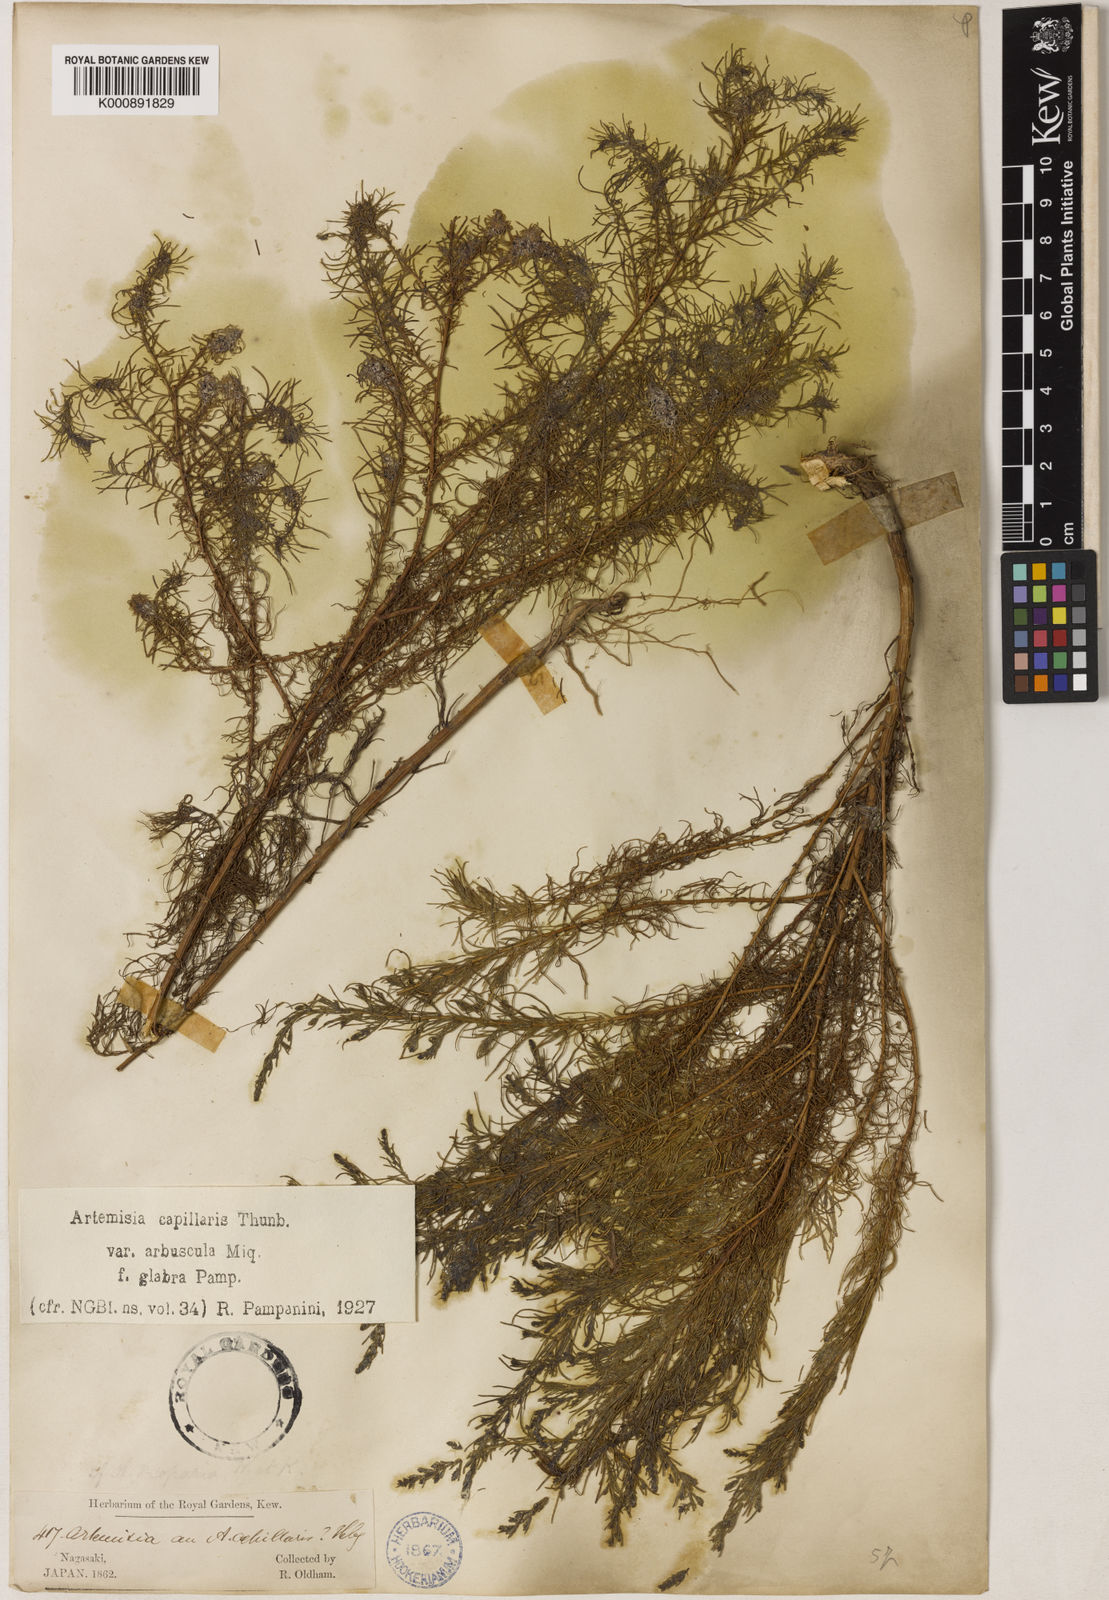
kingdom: Plantae
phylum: Tracheophyta
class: Magnoliopsida
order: Asterales
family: Asteraceae
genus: Artemisia
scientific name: Artemisia capillaris
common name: Yin-chen wormwood
